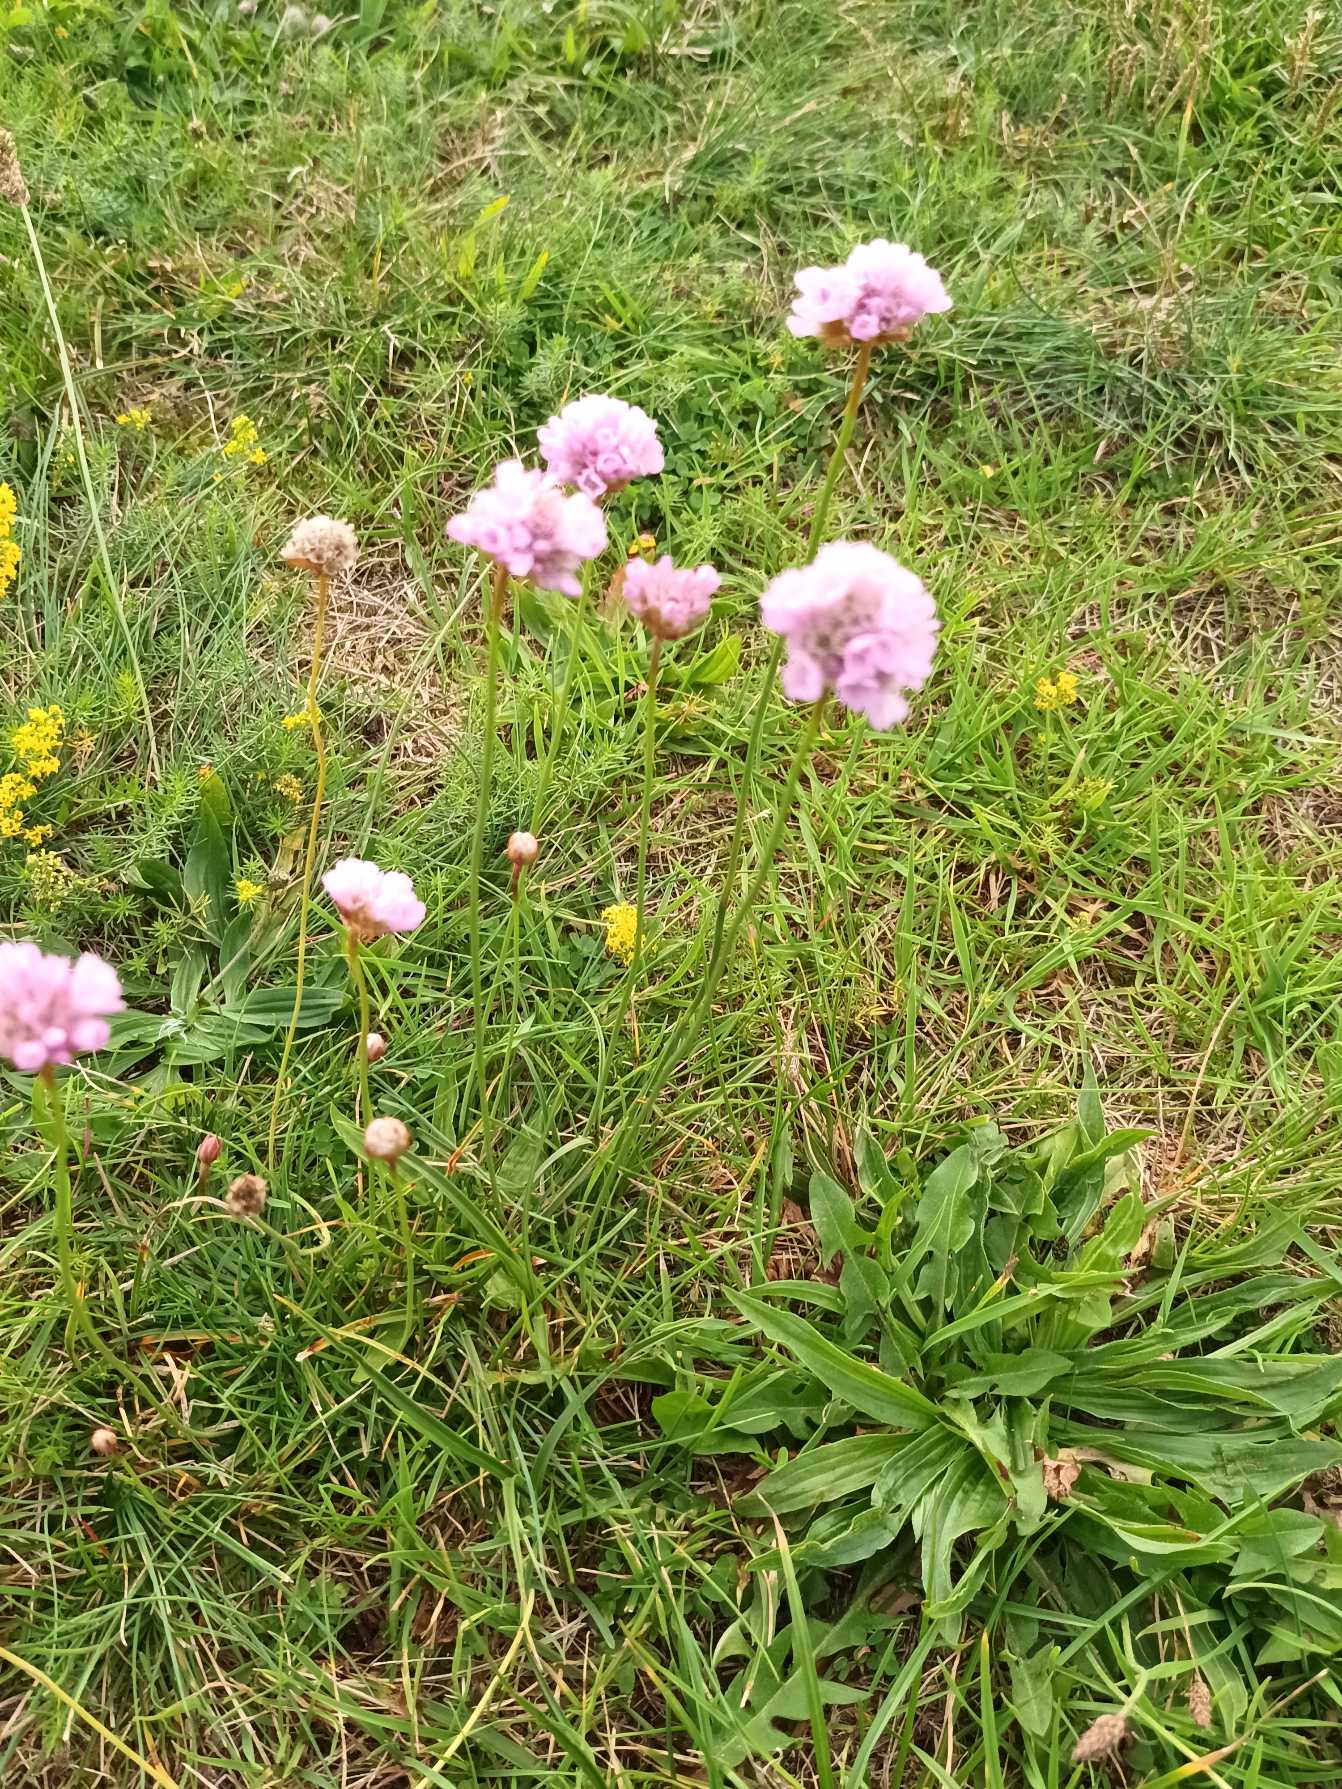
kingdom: Plantae
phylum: Tracheophyta
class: Magnoliopsida
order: Caryophyllales
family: Plumbaginaceae
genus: Armeria
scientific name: Armeria maritima
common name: Engelskgræs
